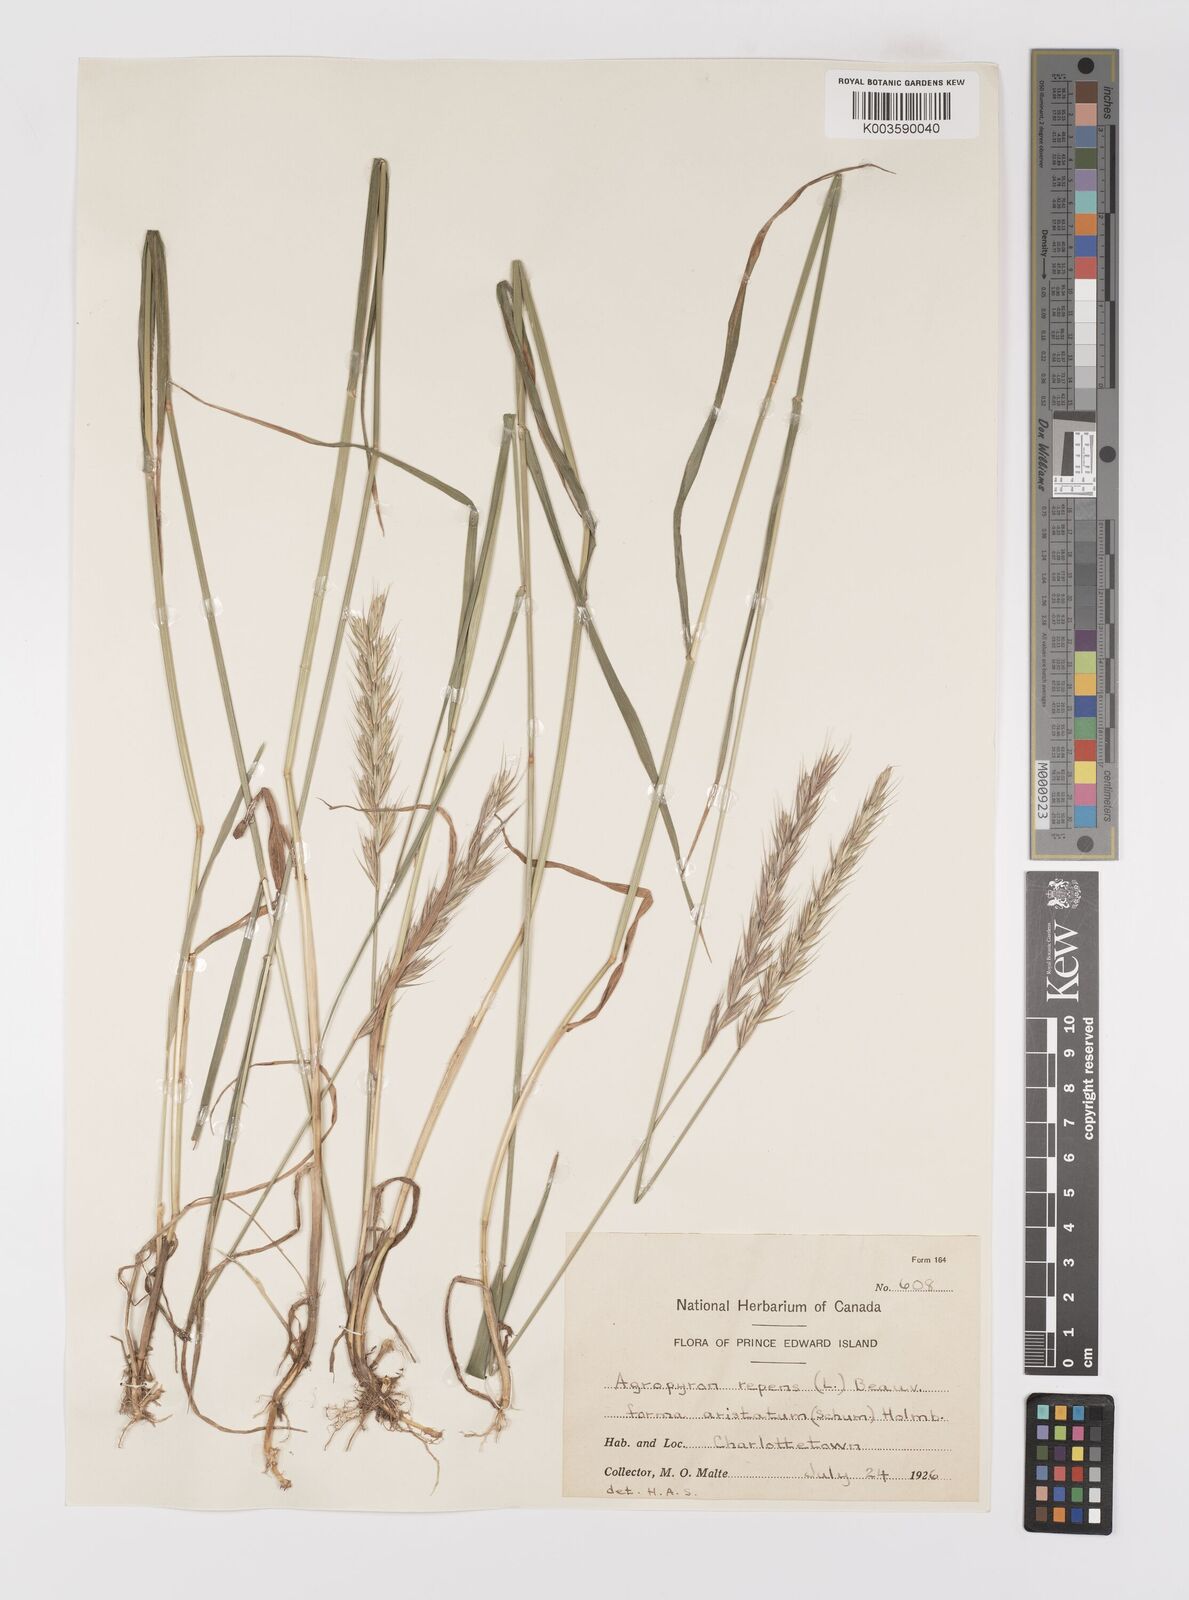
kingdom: Plantae
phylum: Tracheophyta
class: Liliopsida
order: Poales
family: Poaceae
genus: Elymus
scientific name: Elymus repens
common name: Quackgrass
